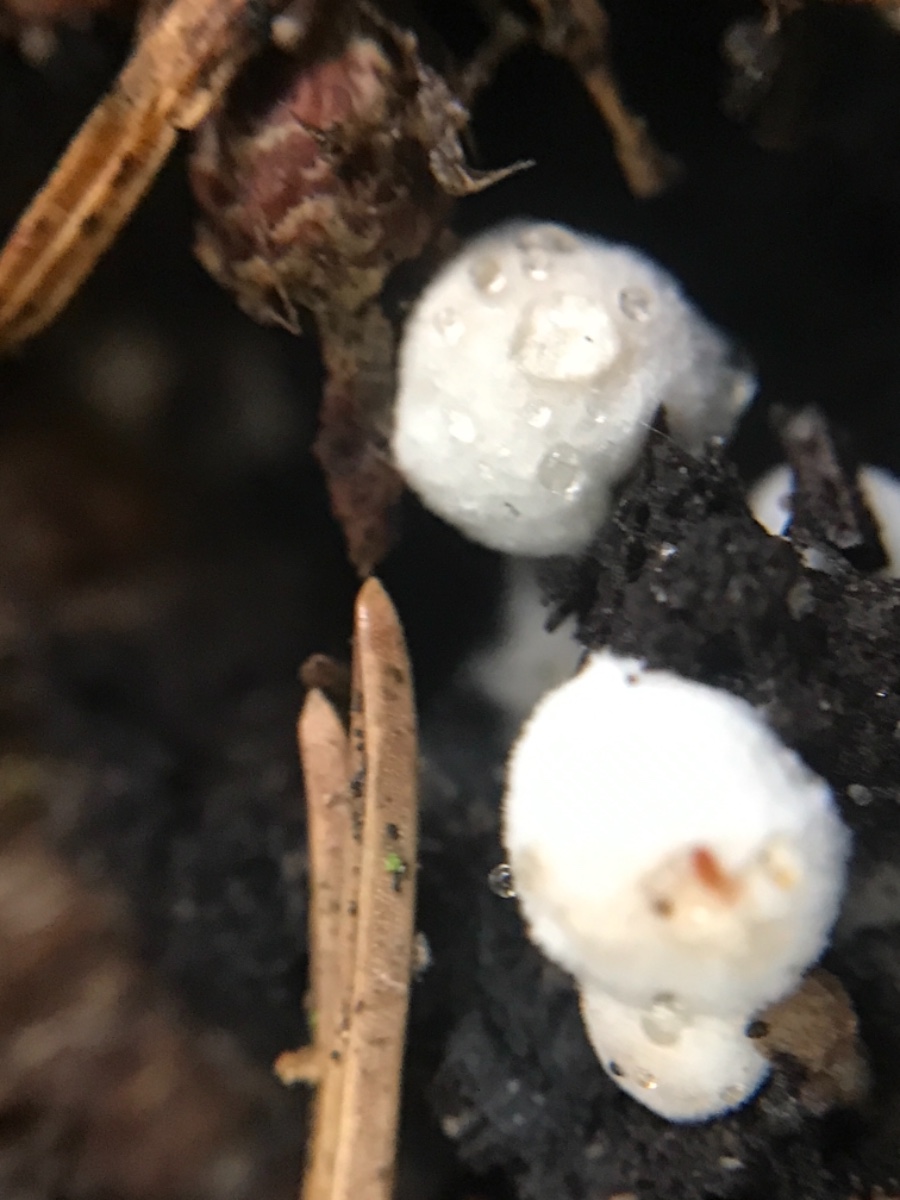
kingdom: Fungi
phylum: Basidiomycota
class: Agaricomycetes
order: Agaricales
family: Lyophyllaceae
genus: Asterophora
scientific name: Asterophora
